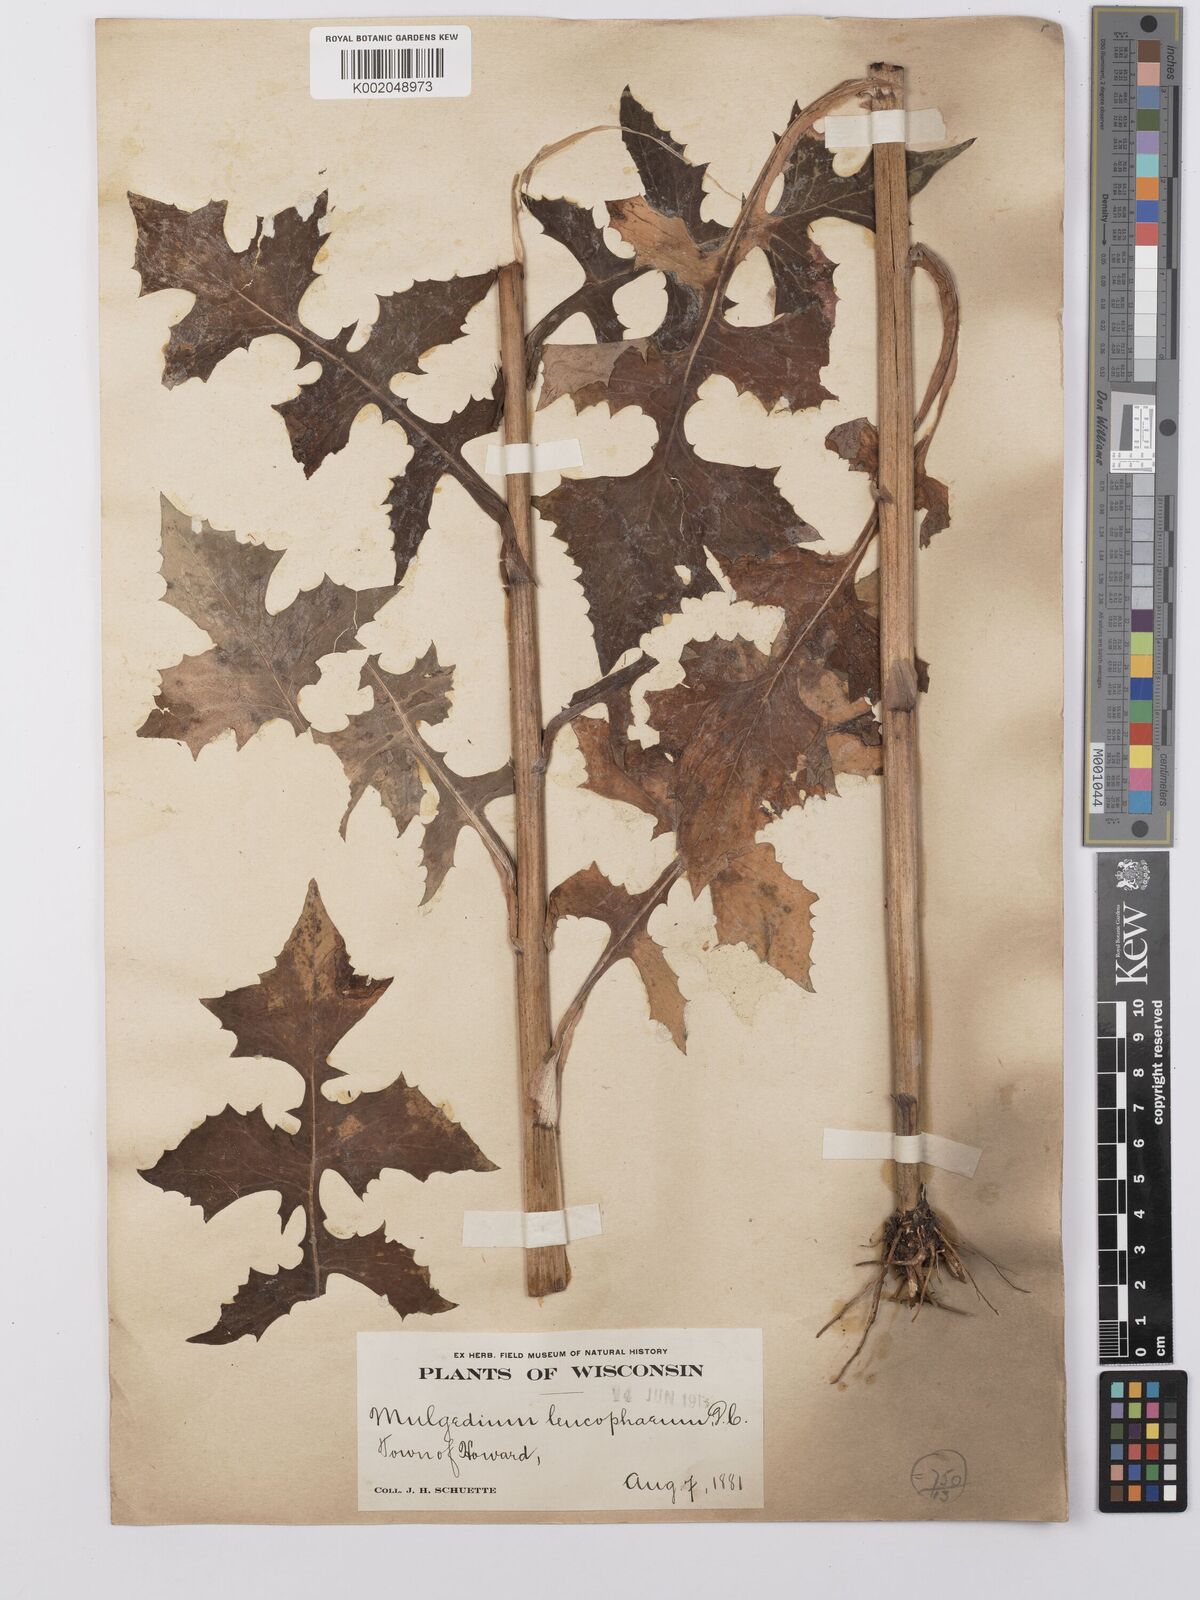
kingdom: Plantae
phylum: Tracheophyta
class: Magnoliopsida
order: Asterales
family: Asteraceae
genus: Lactuca
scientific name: Lactuca
